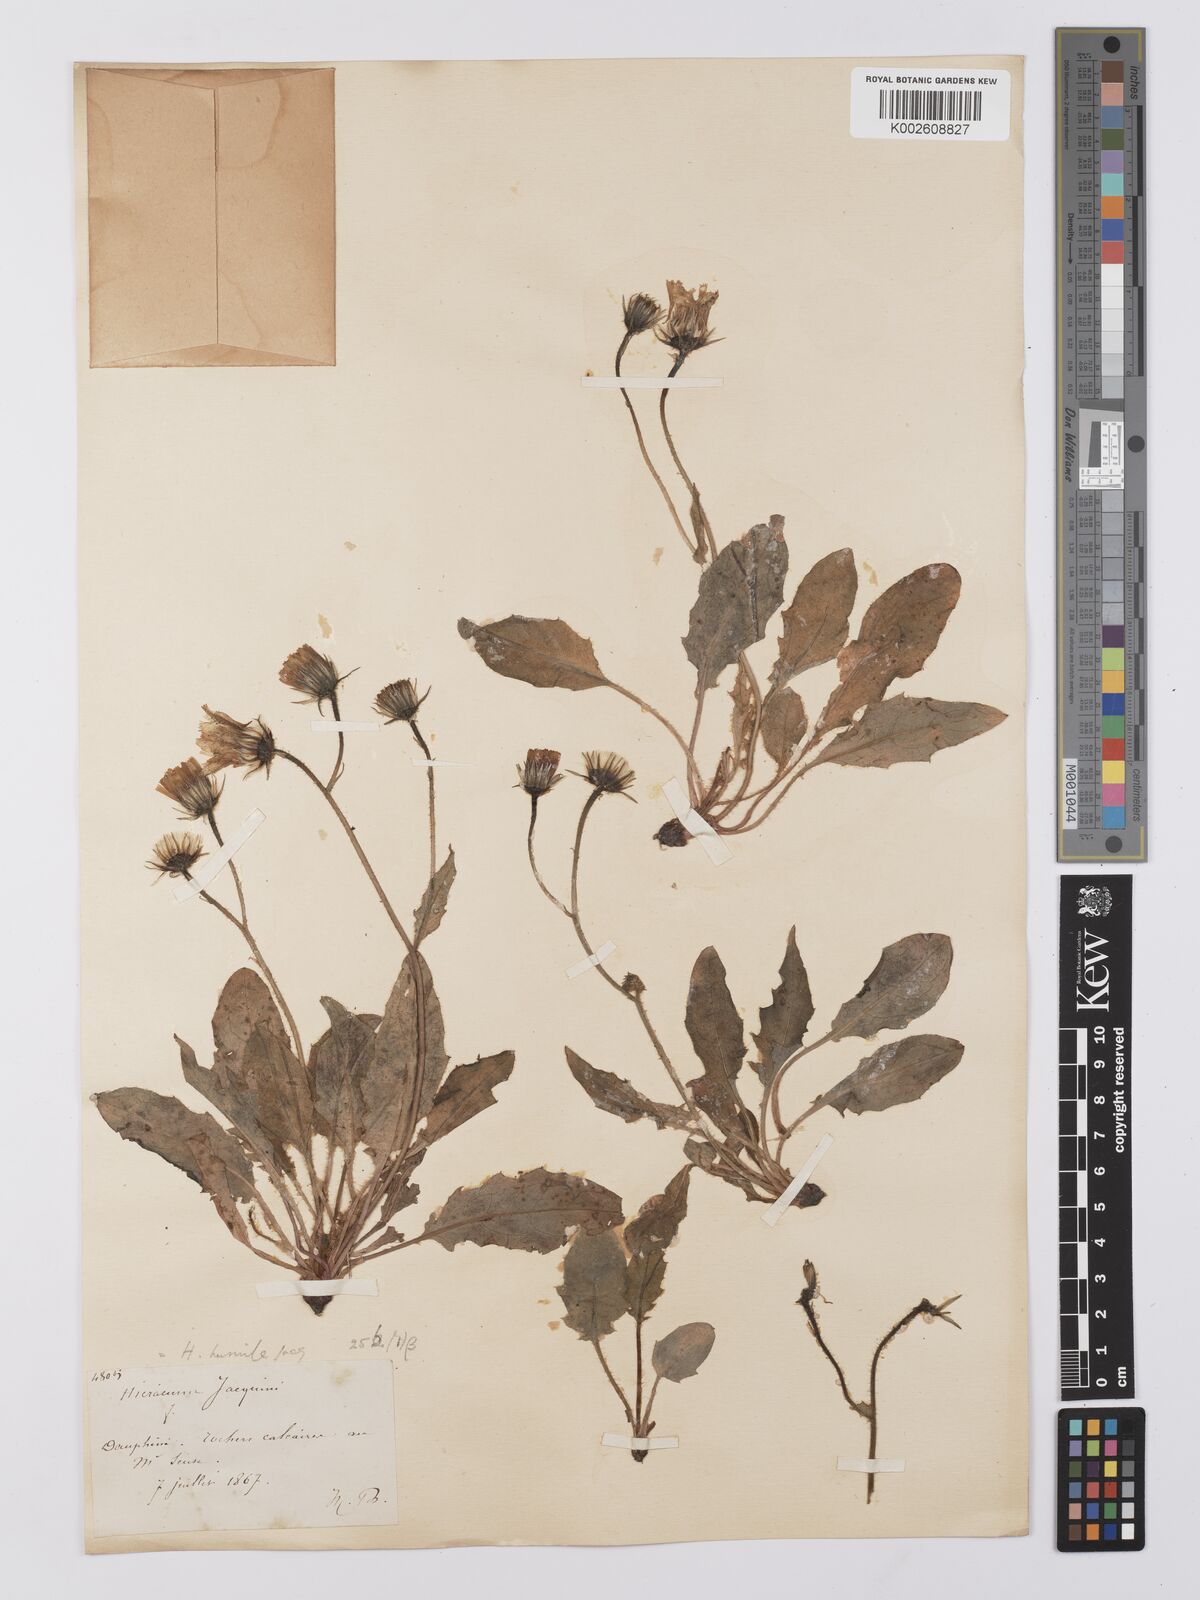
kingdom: Plantae
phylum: Tracheophyta
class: Magnoliopsida
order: Asterales
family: Asteraceae
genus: Hieracium
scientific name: Hieracium cottetii
